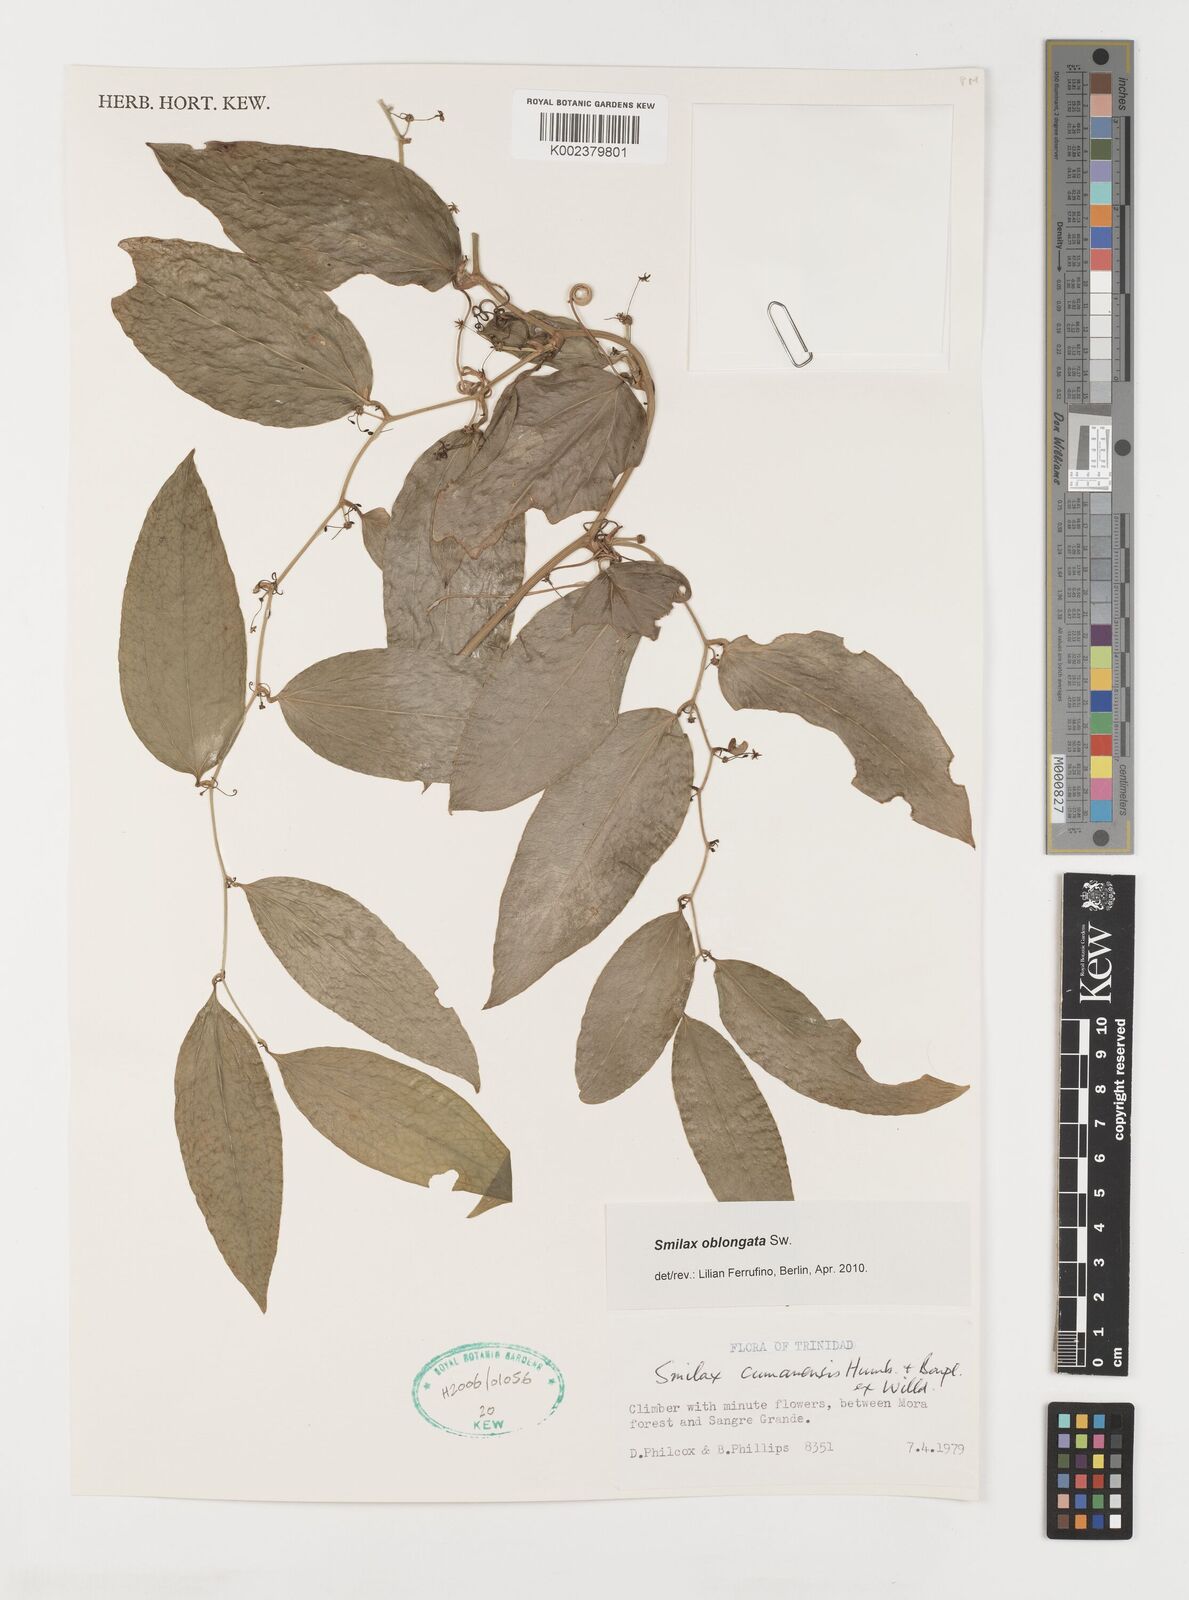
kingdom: Plantae
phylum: Tracheophyta
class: Liliopsida
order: Liliales
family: Smilacaceae
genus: Smilax
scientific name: Smilax oblongata
